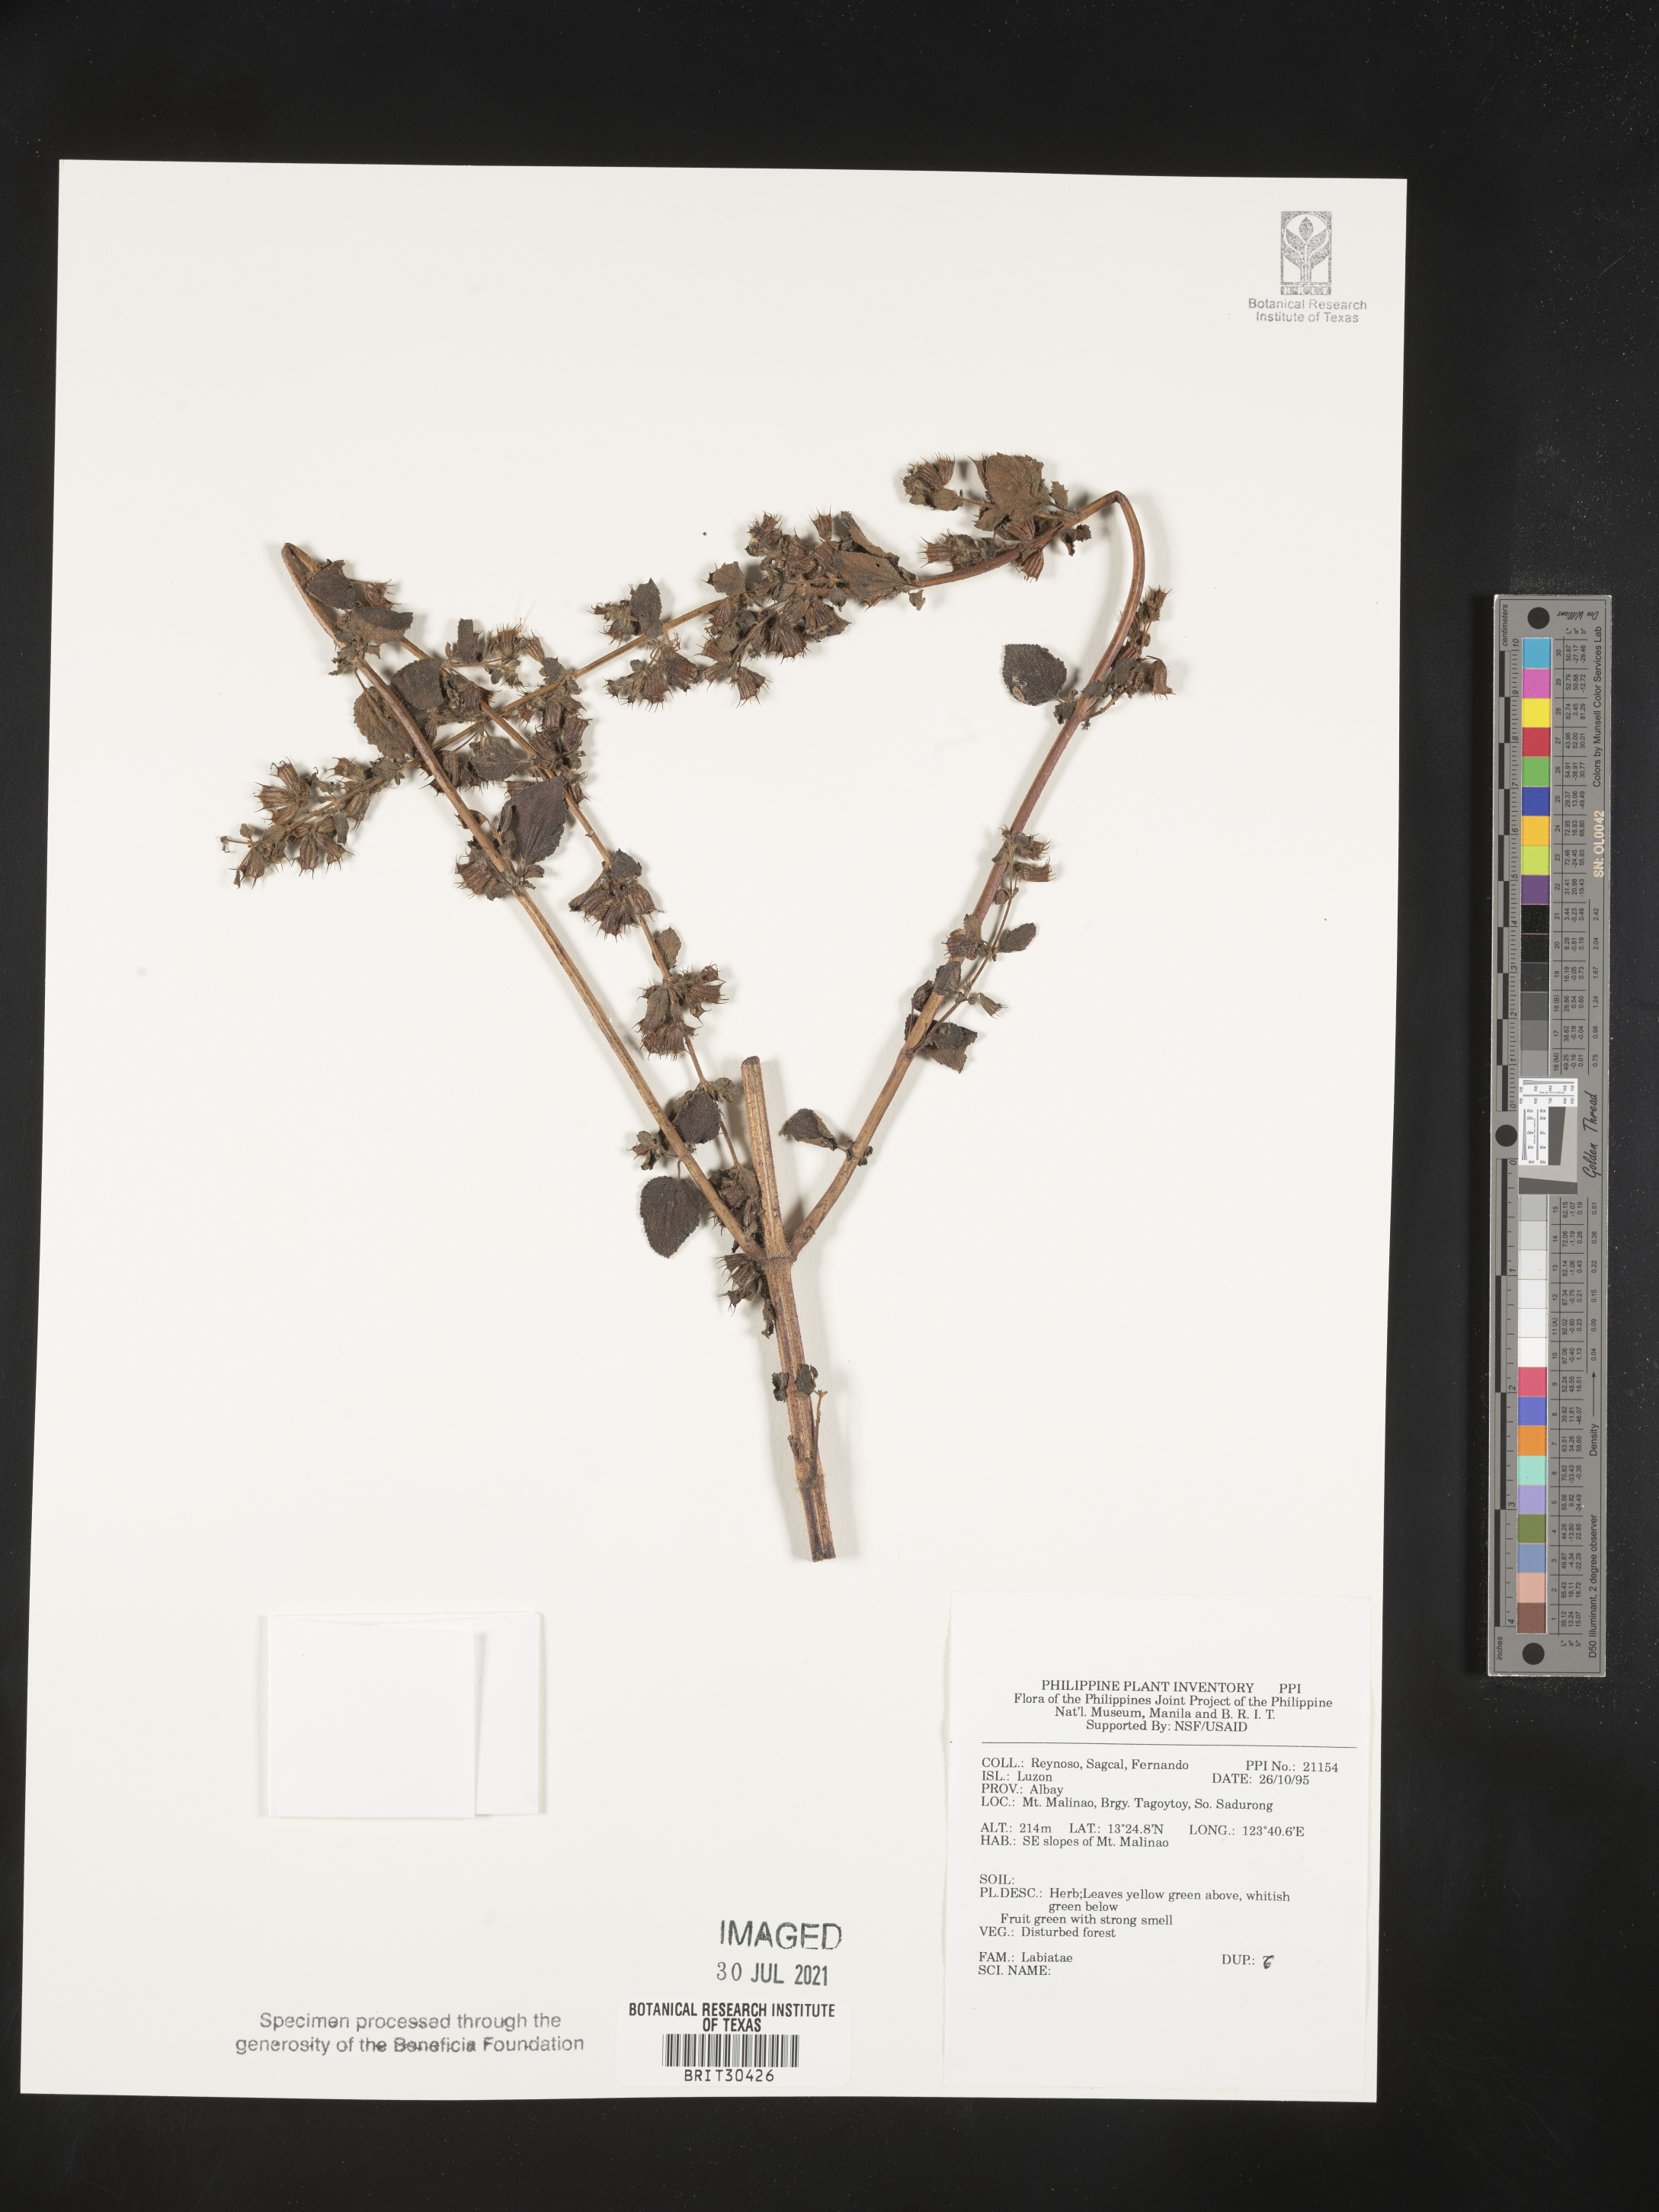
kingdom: Plantae
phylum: Tracheophyta
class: Magnoliopsida
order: Lamiales
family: Lamiaceae
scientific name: Lamiaceae
